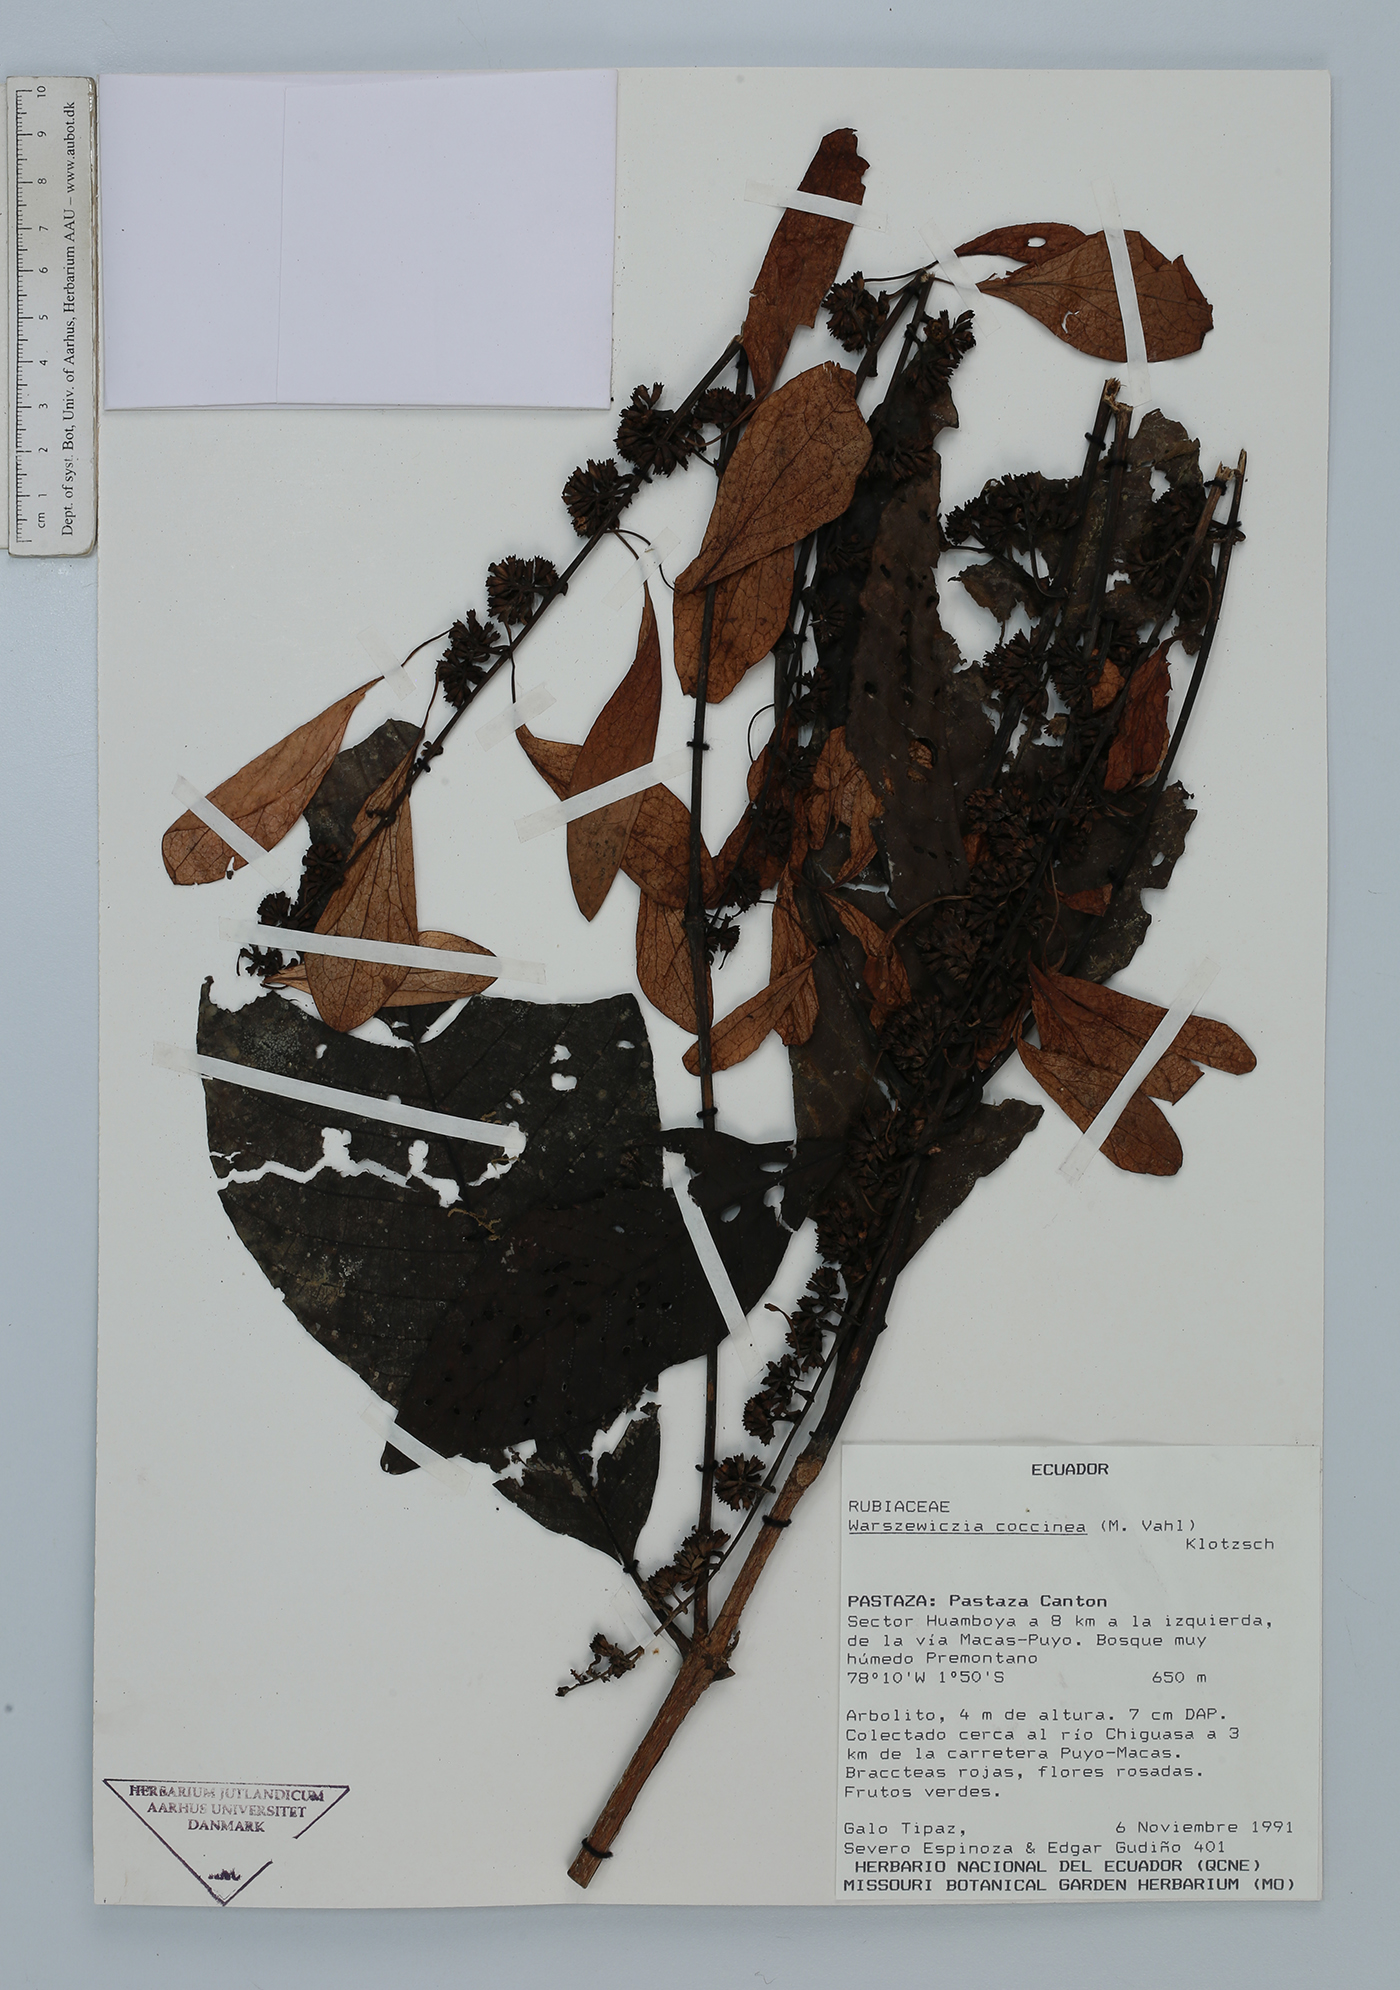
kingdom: Plantae
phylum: Tracheophyta
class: Magnoliopsida
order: Gentianales
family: Rubiaceae
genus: Warszewiczia
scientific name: Warszewiczia coccinea
